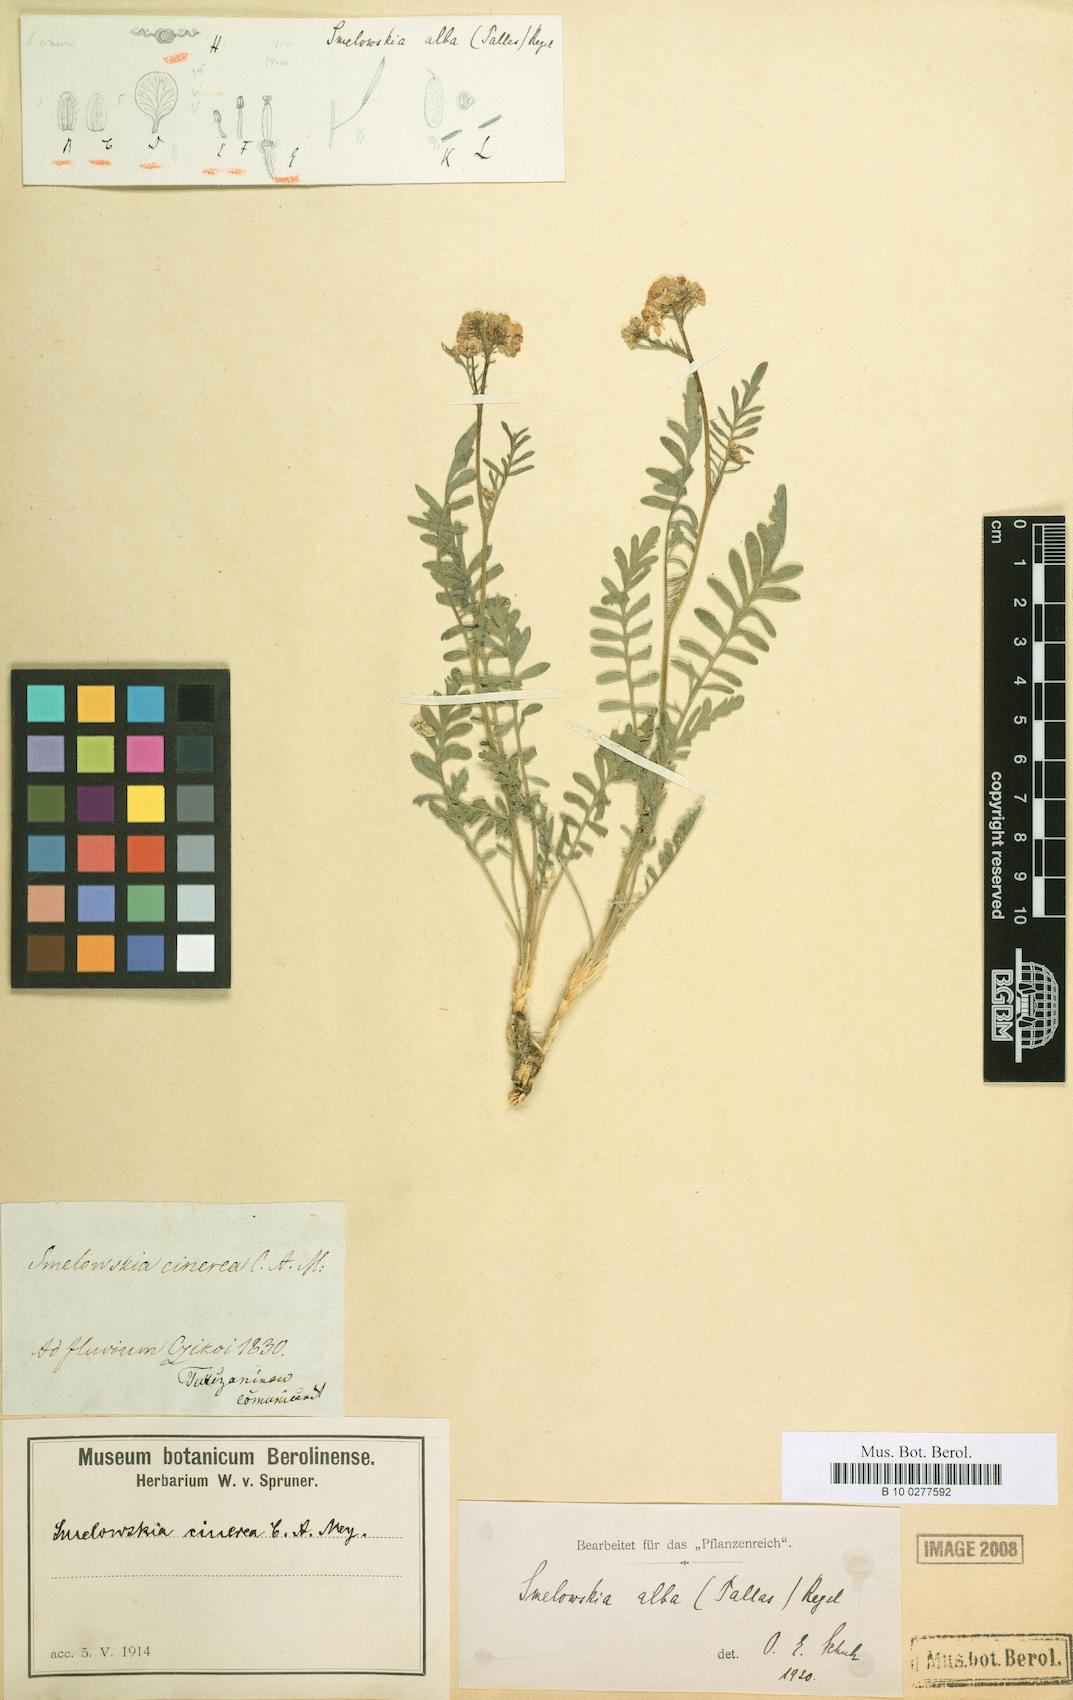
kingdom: Plantae
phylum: Tracheophyta
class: Magnoliopsida
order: Brassicales
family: Brassicaceae
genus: Smelowskia
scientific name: Smelowskia alba
